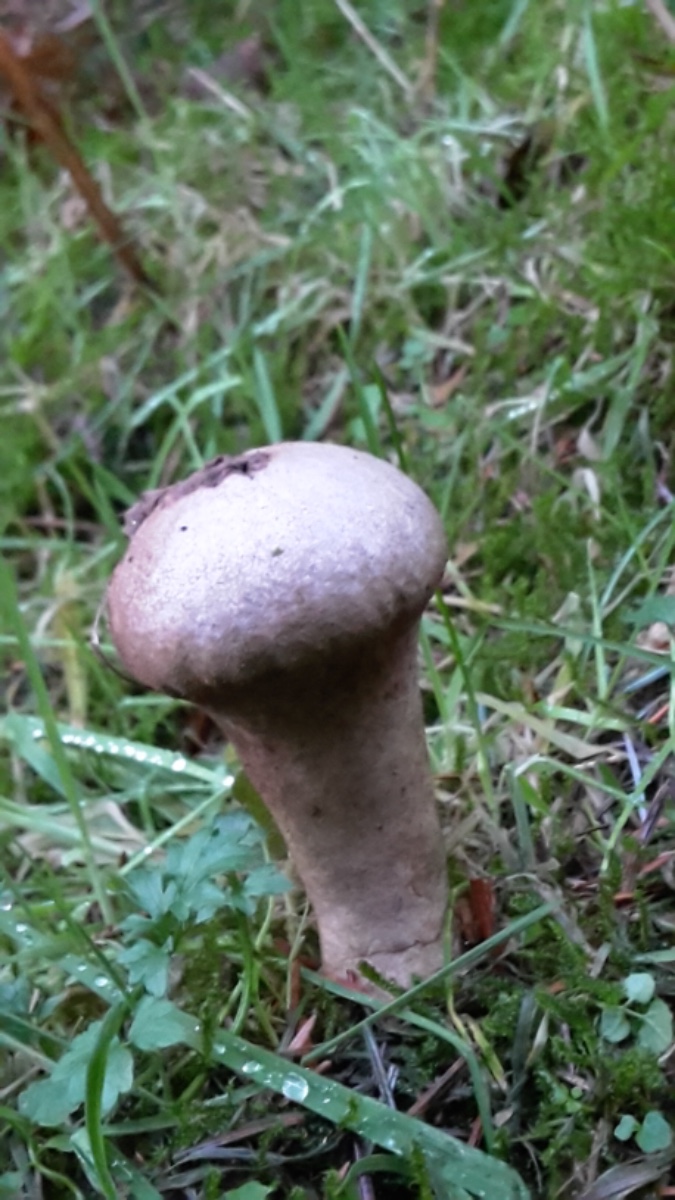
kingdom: Fungi
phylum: Basidiomycota
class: Agaricomycetes
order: Agaricales
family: Lycoperdaceae
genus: Lycoperdon
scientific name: Lycoperdon excipuliforme
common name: højstokket støvbold
